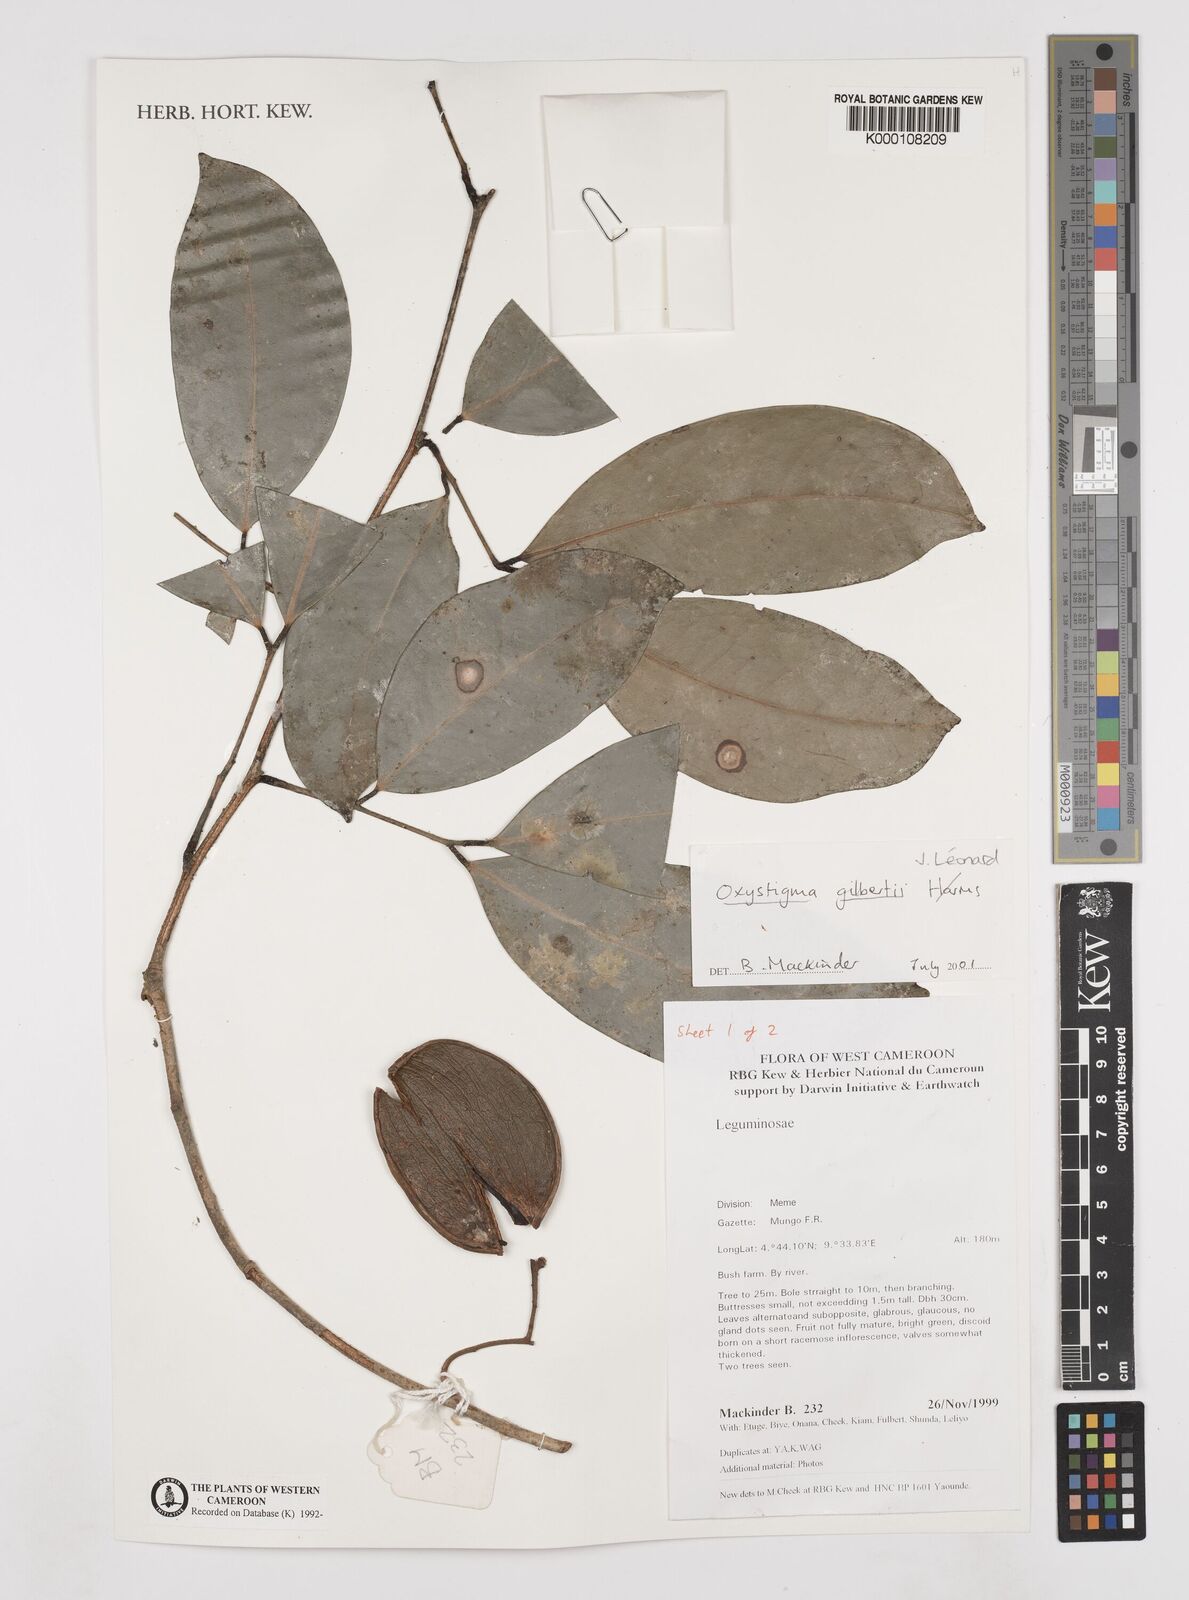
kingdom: Animalia
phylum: Arthropoda
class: Insecta
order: Odonata
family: Heteragrionidae
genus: Oxystigma
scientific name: Oxystigma
